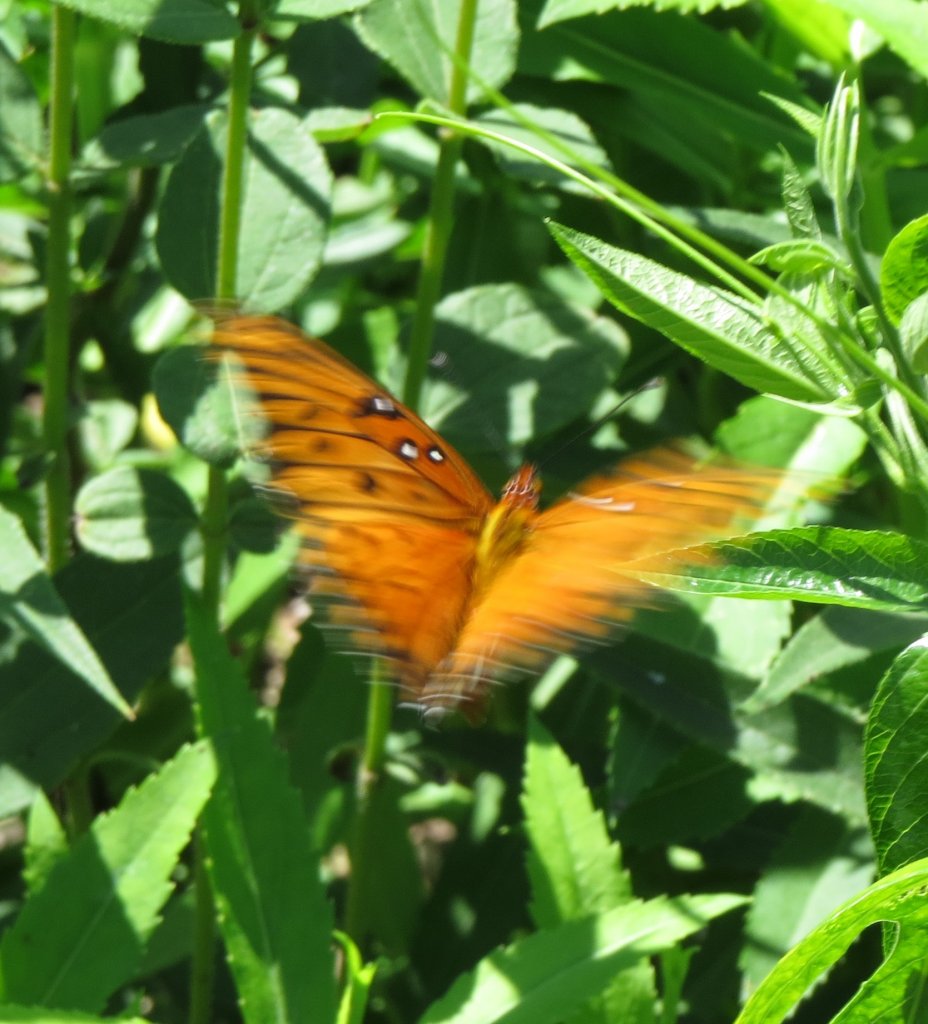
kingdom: Animalia
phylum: Arthropoda
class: Insecta
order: Lepidoptera
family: Nymphalidae
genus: Dione
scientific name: Dione vanillae
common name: Gulf Fritillary
